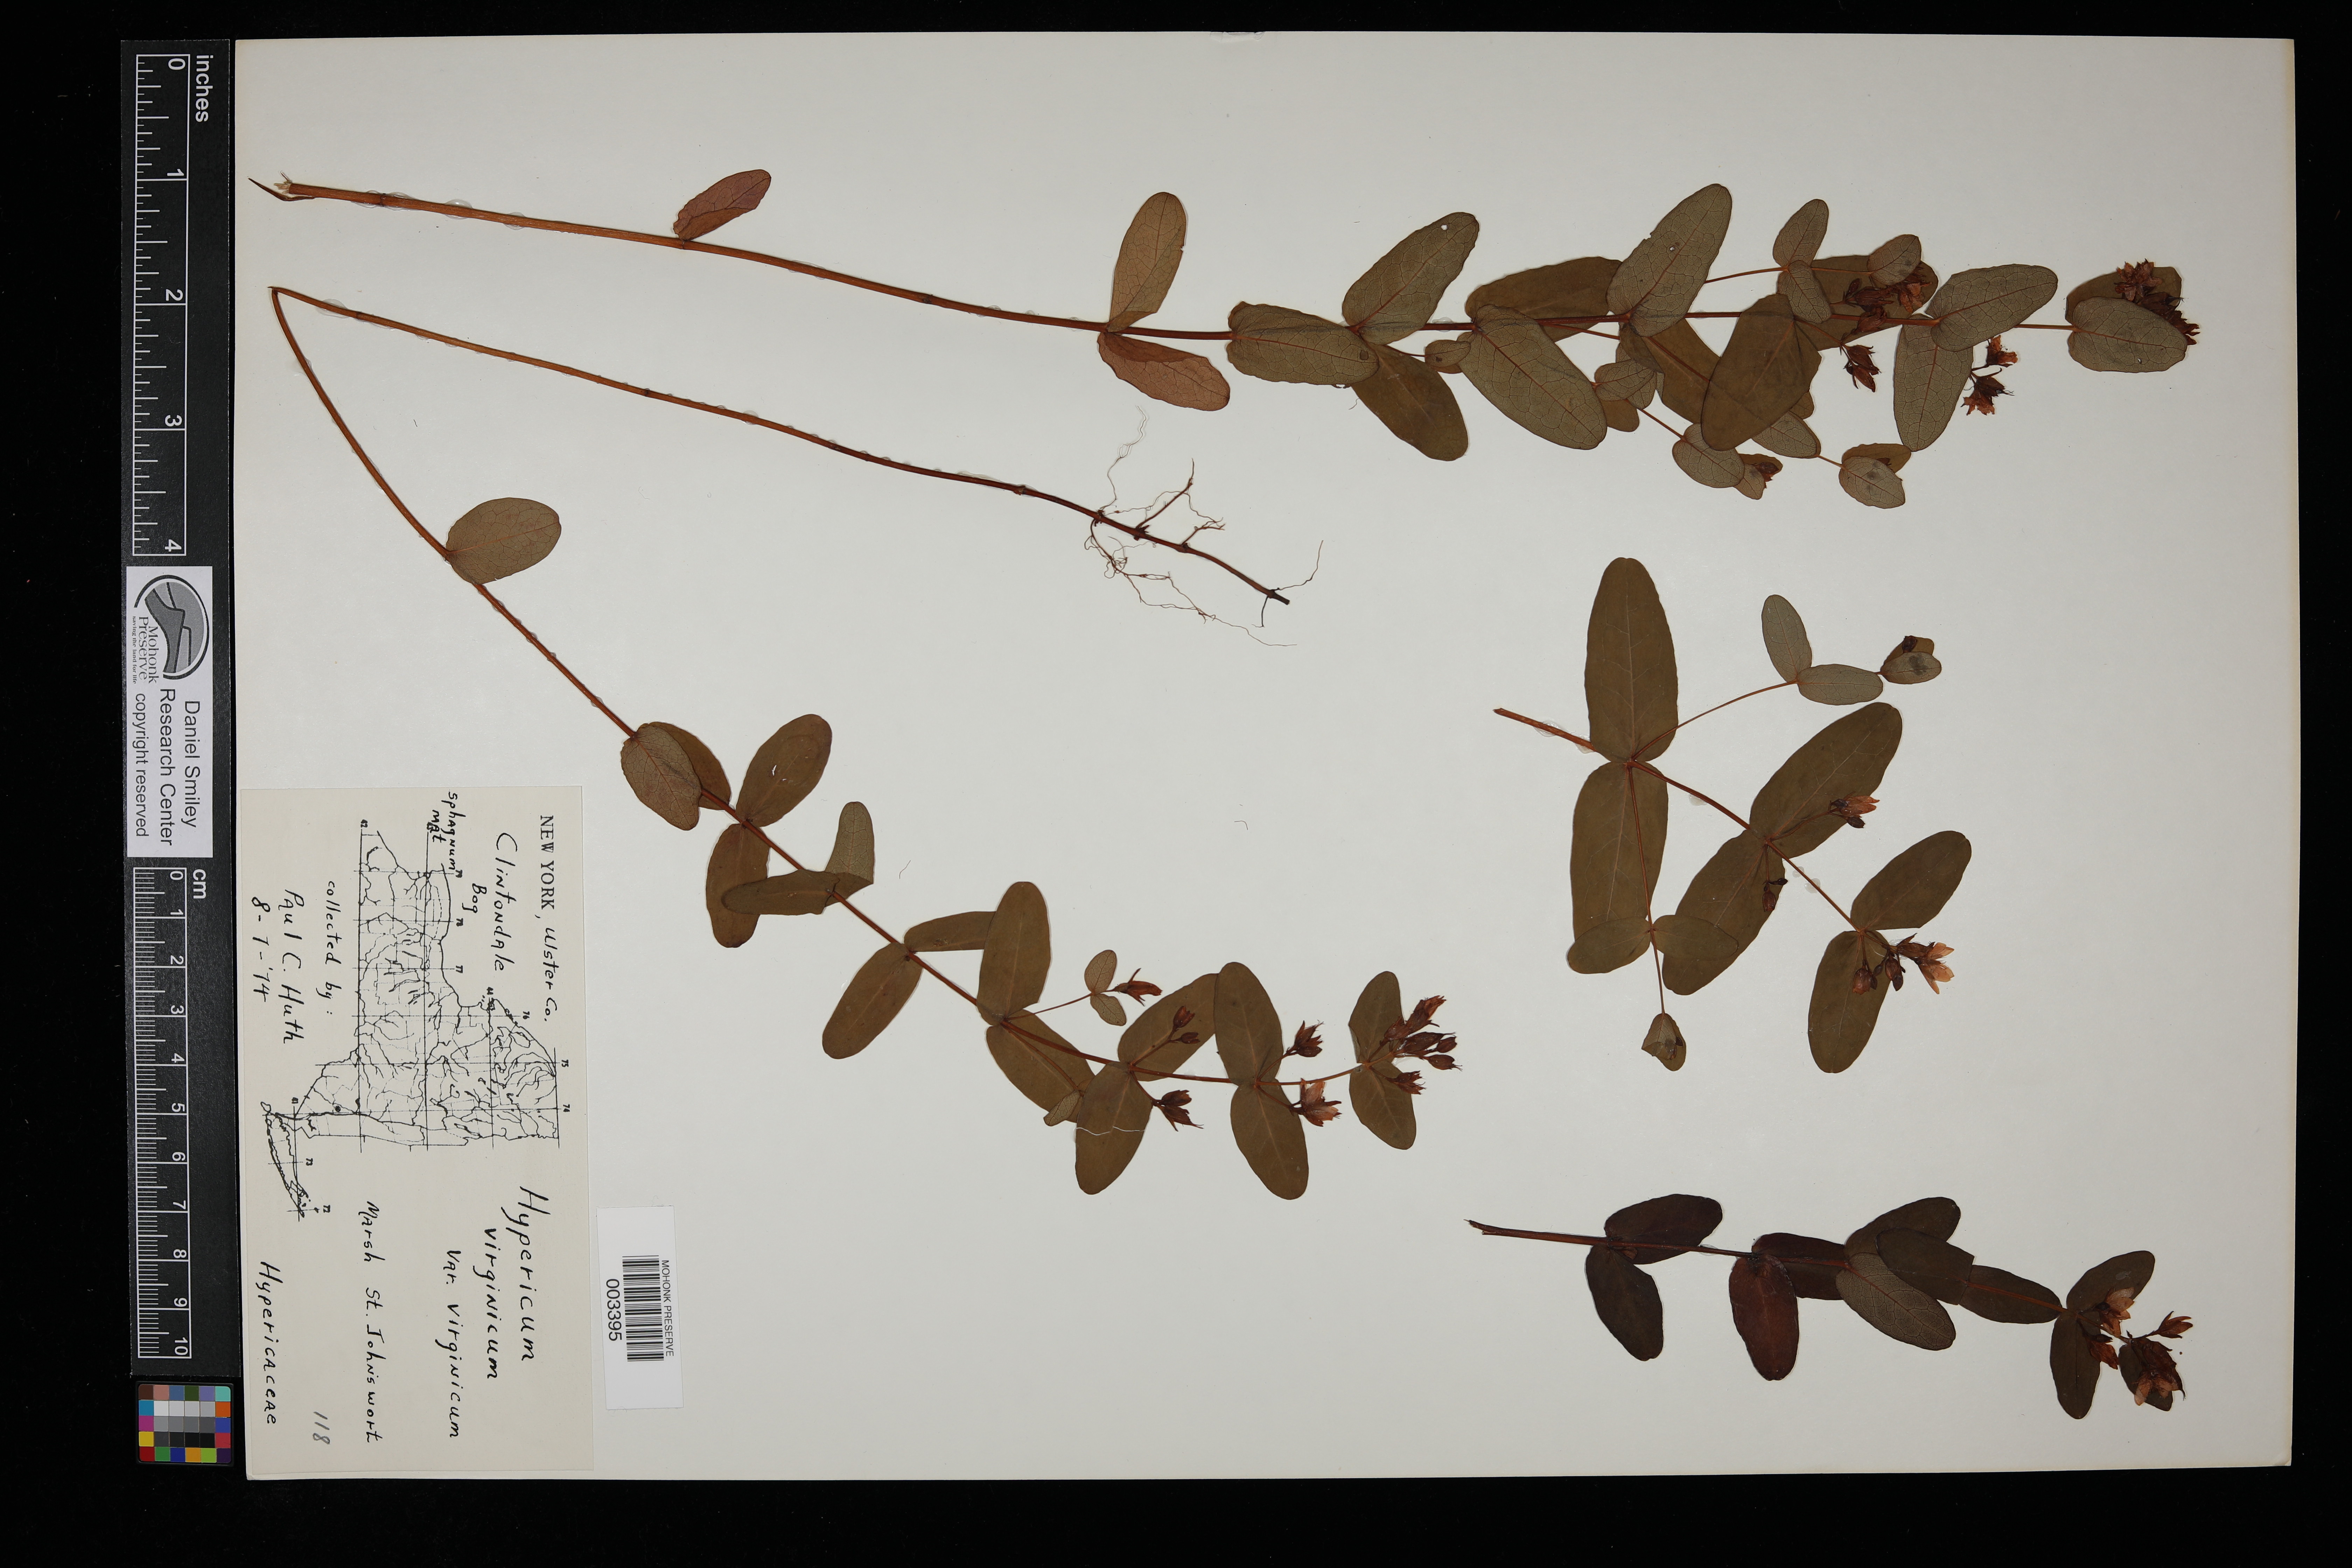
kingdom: Plantae
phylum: Tracheophyta
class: Magnoliopsida
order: Malpighiales
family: Hypericaceae
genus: Triadenum
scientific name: Triadenum virginicum
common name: Marsh st. john's-wort
